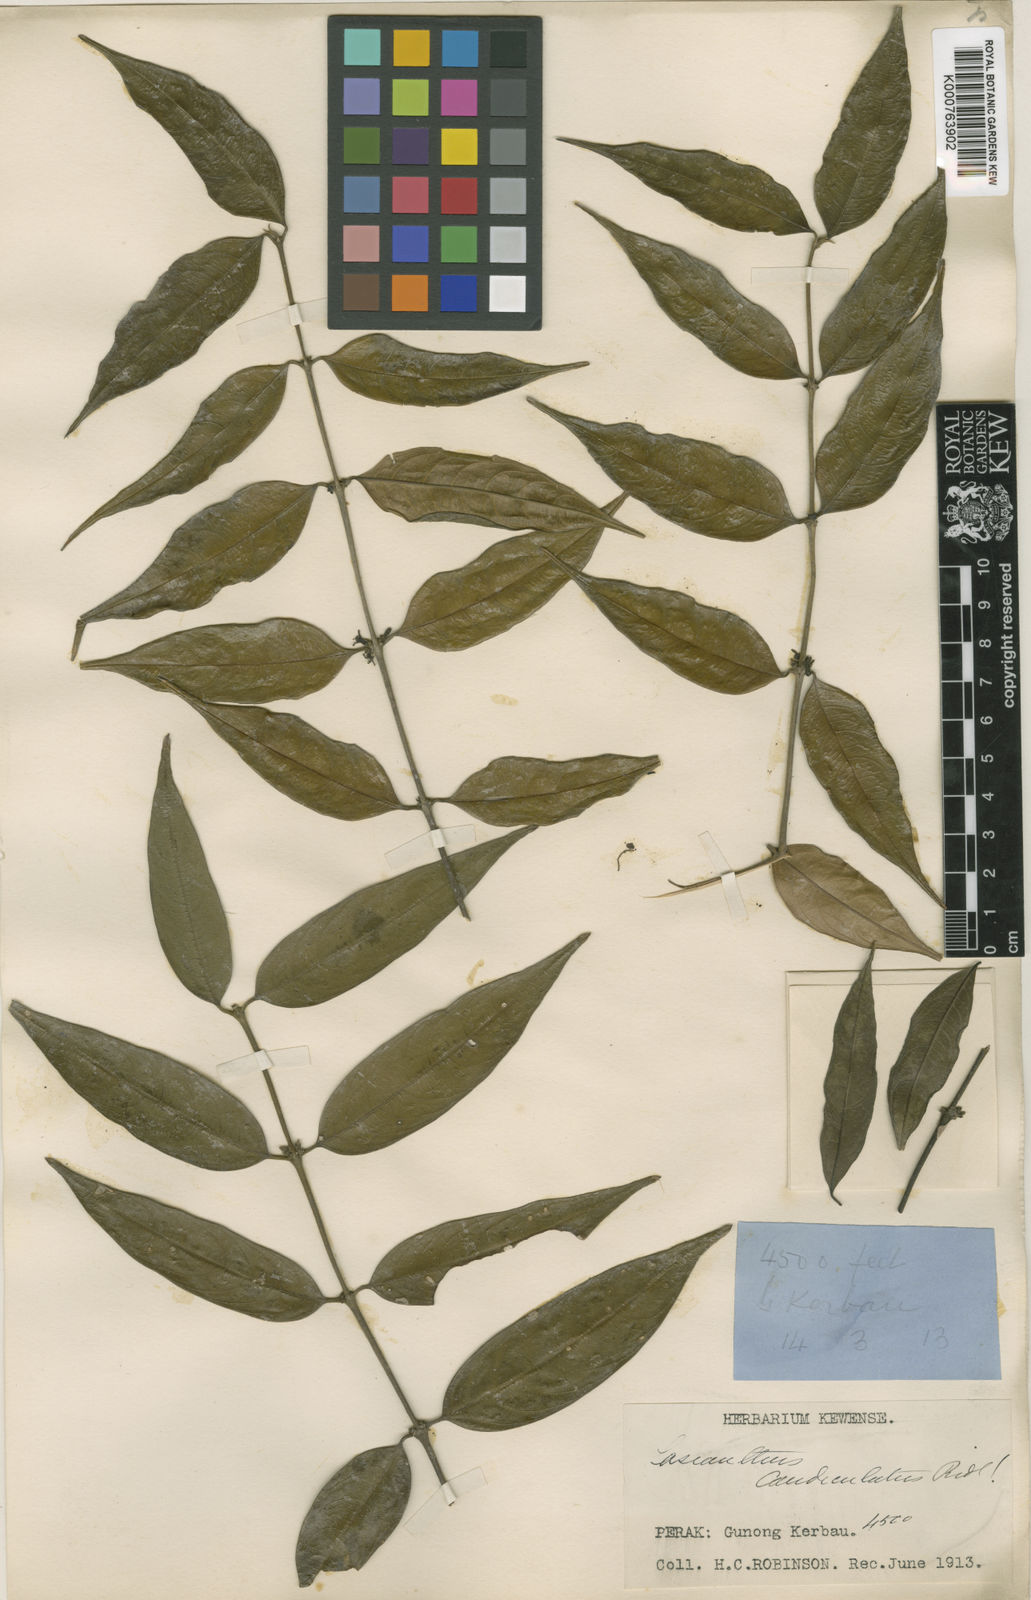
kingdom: Plantae
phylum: Tracheophyta
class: Magnoliopsida
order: Gentianales
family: Rubiaceae
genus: Lasianthus
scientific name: Lasianthus montanus
